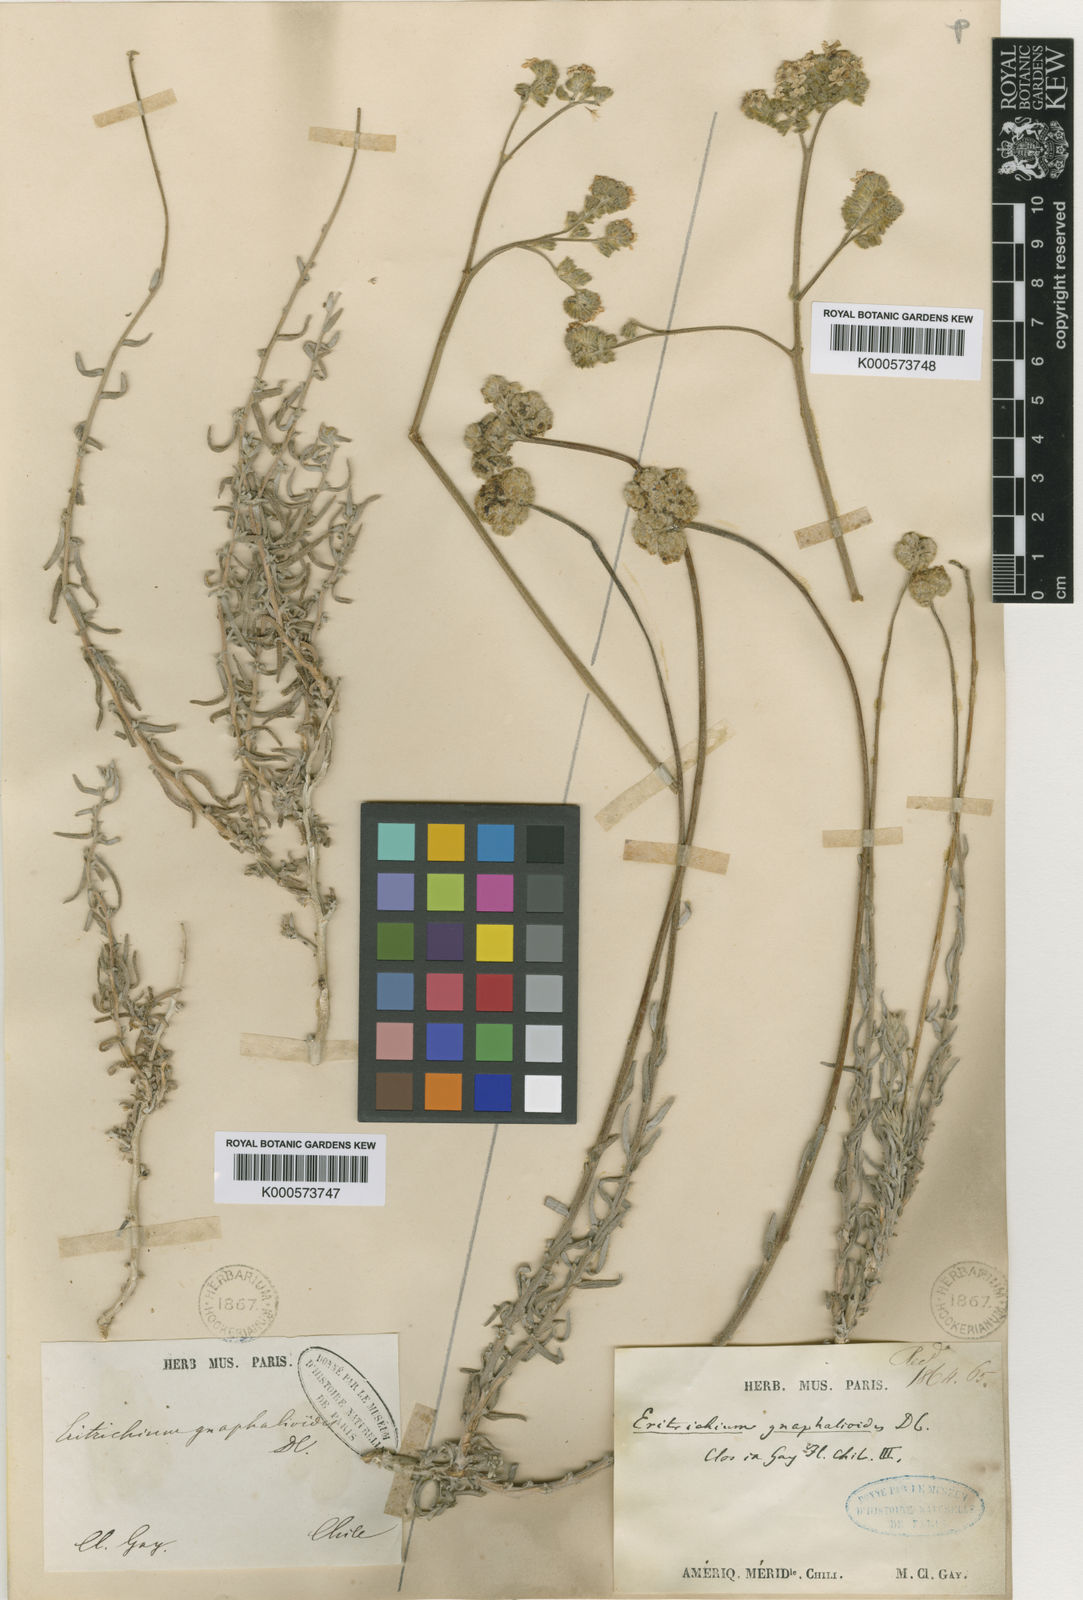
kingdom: Plantae
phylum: Tracheophyta
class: Magnoliopsida
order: Boraginales
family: Boraginaceae
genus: Cryptantha
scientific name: Cryptantha
